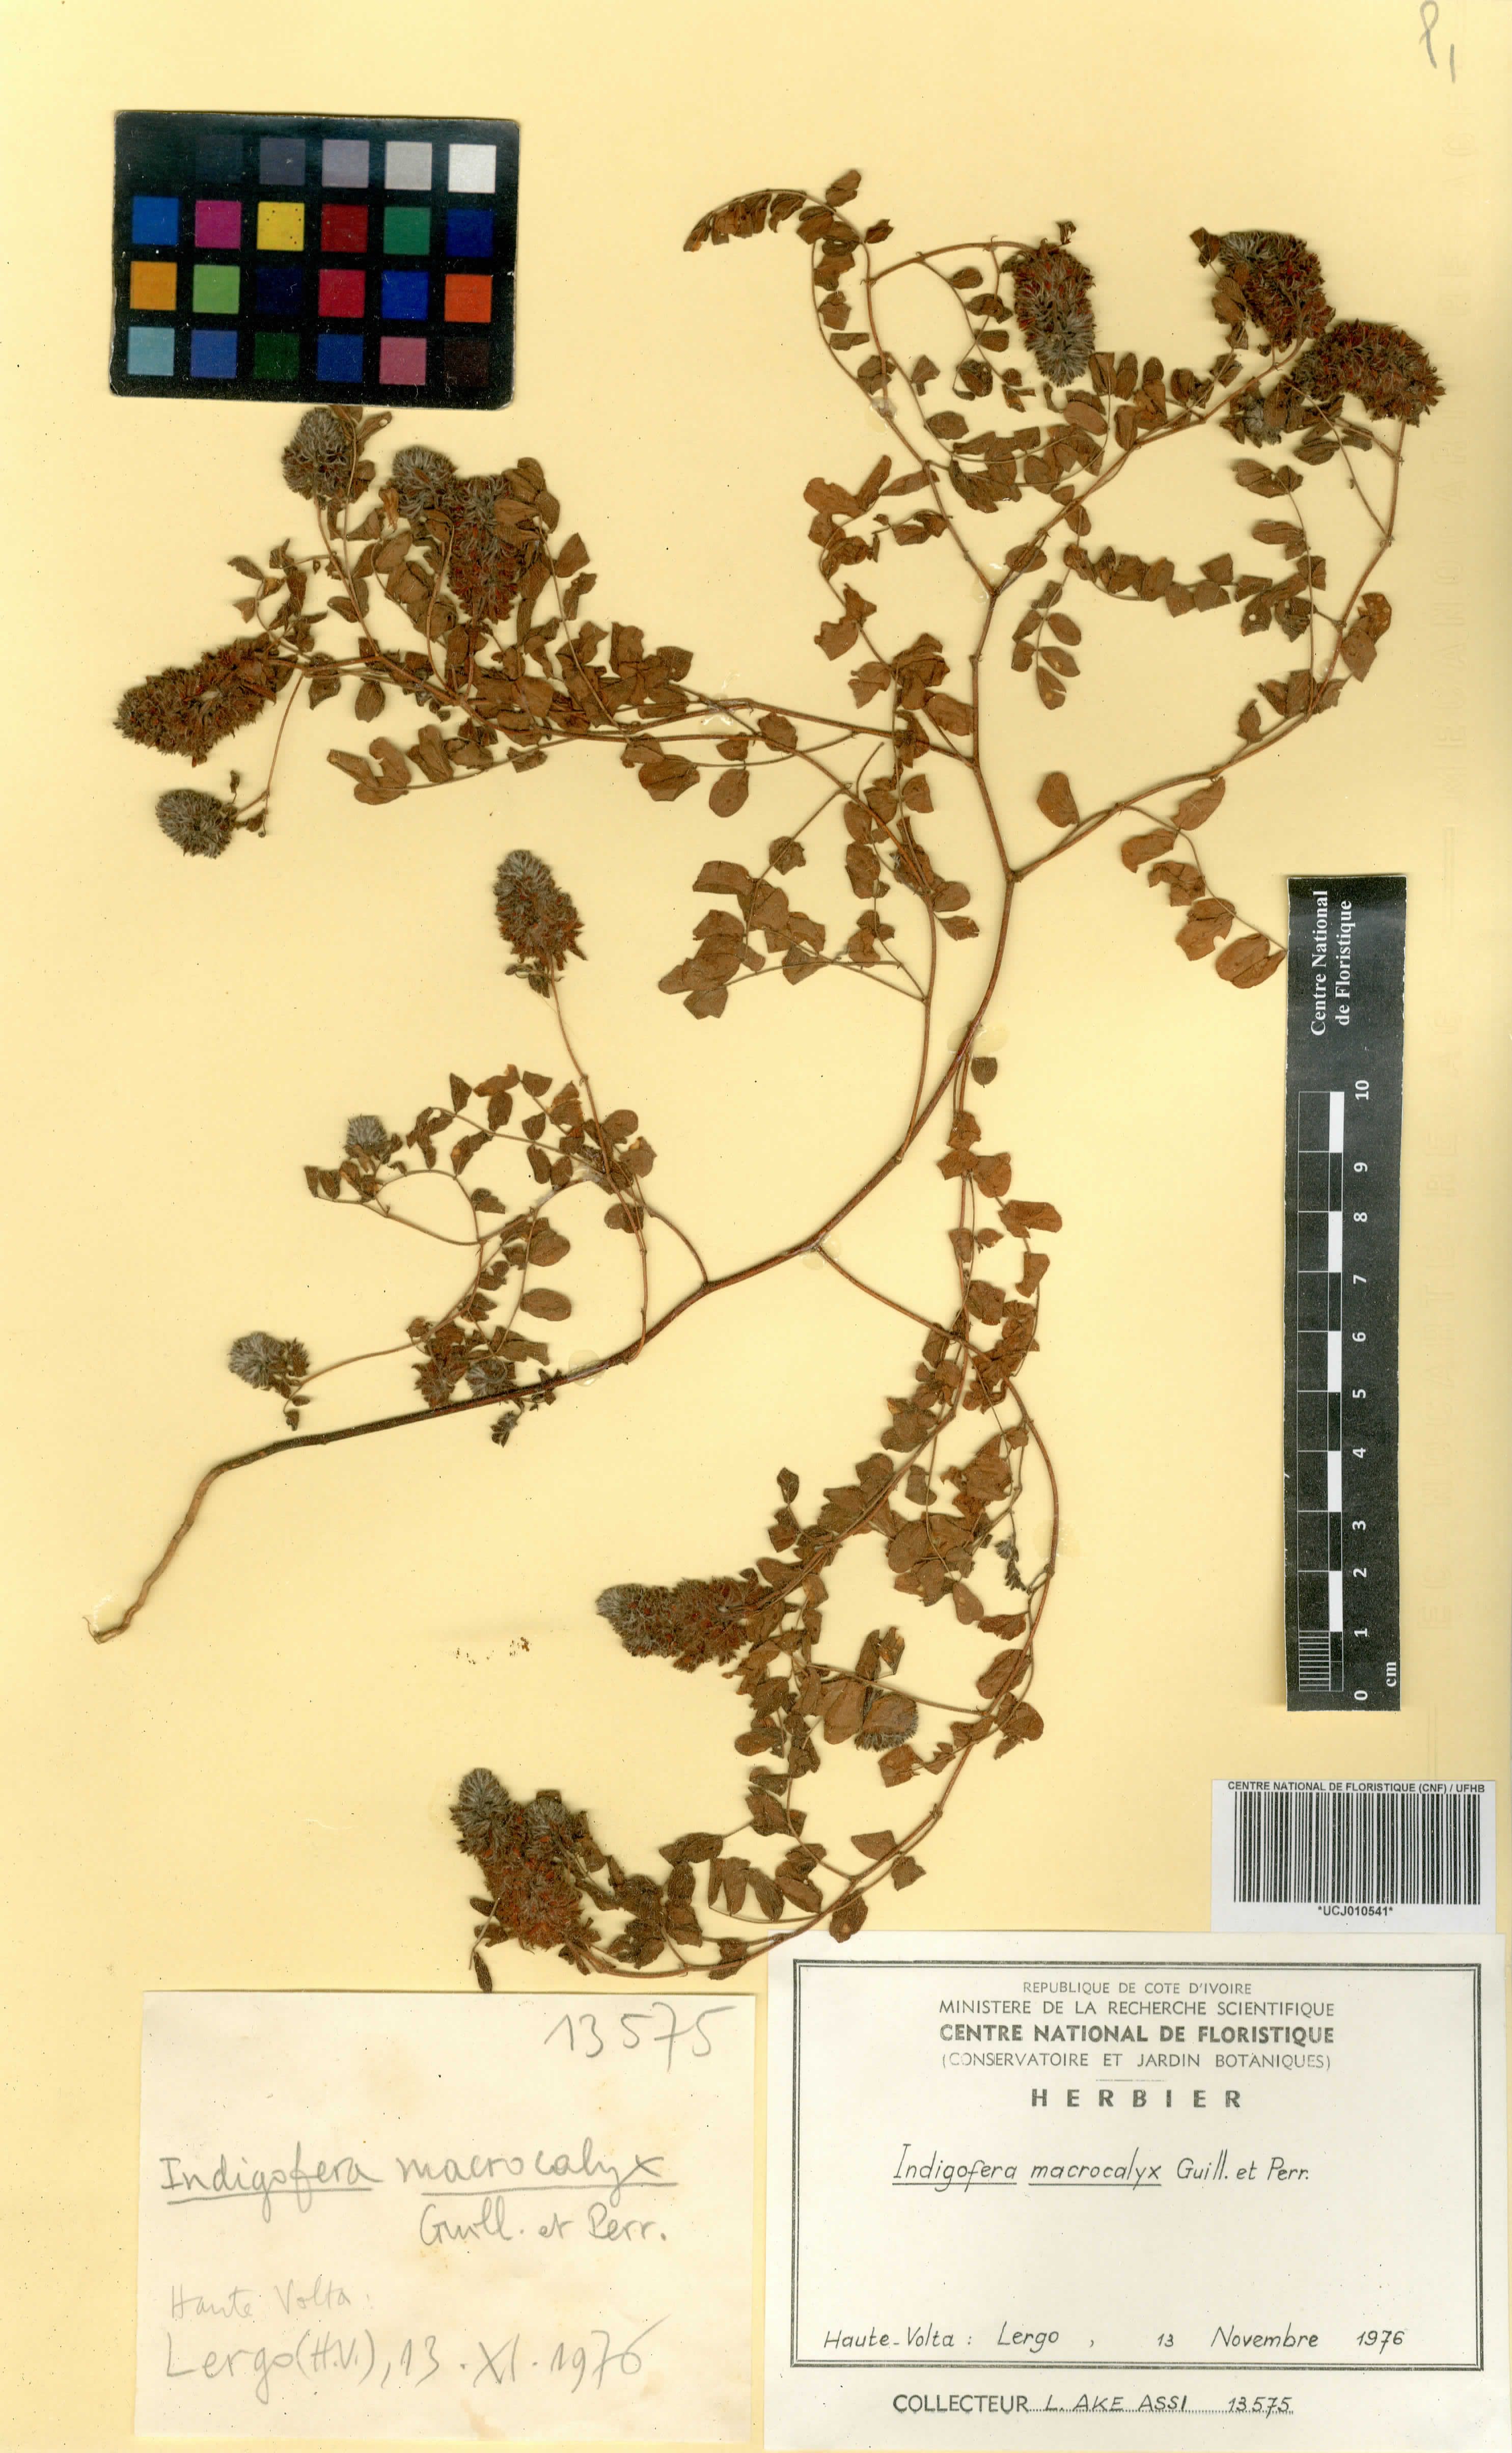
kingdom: Plantae
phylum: Tracheophyta
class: Magnoliopsida
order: Fabales
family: Fabaceae
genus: Indigofera
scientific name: Indigofera macrocalyx
